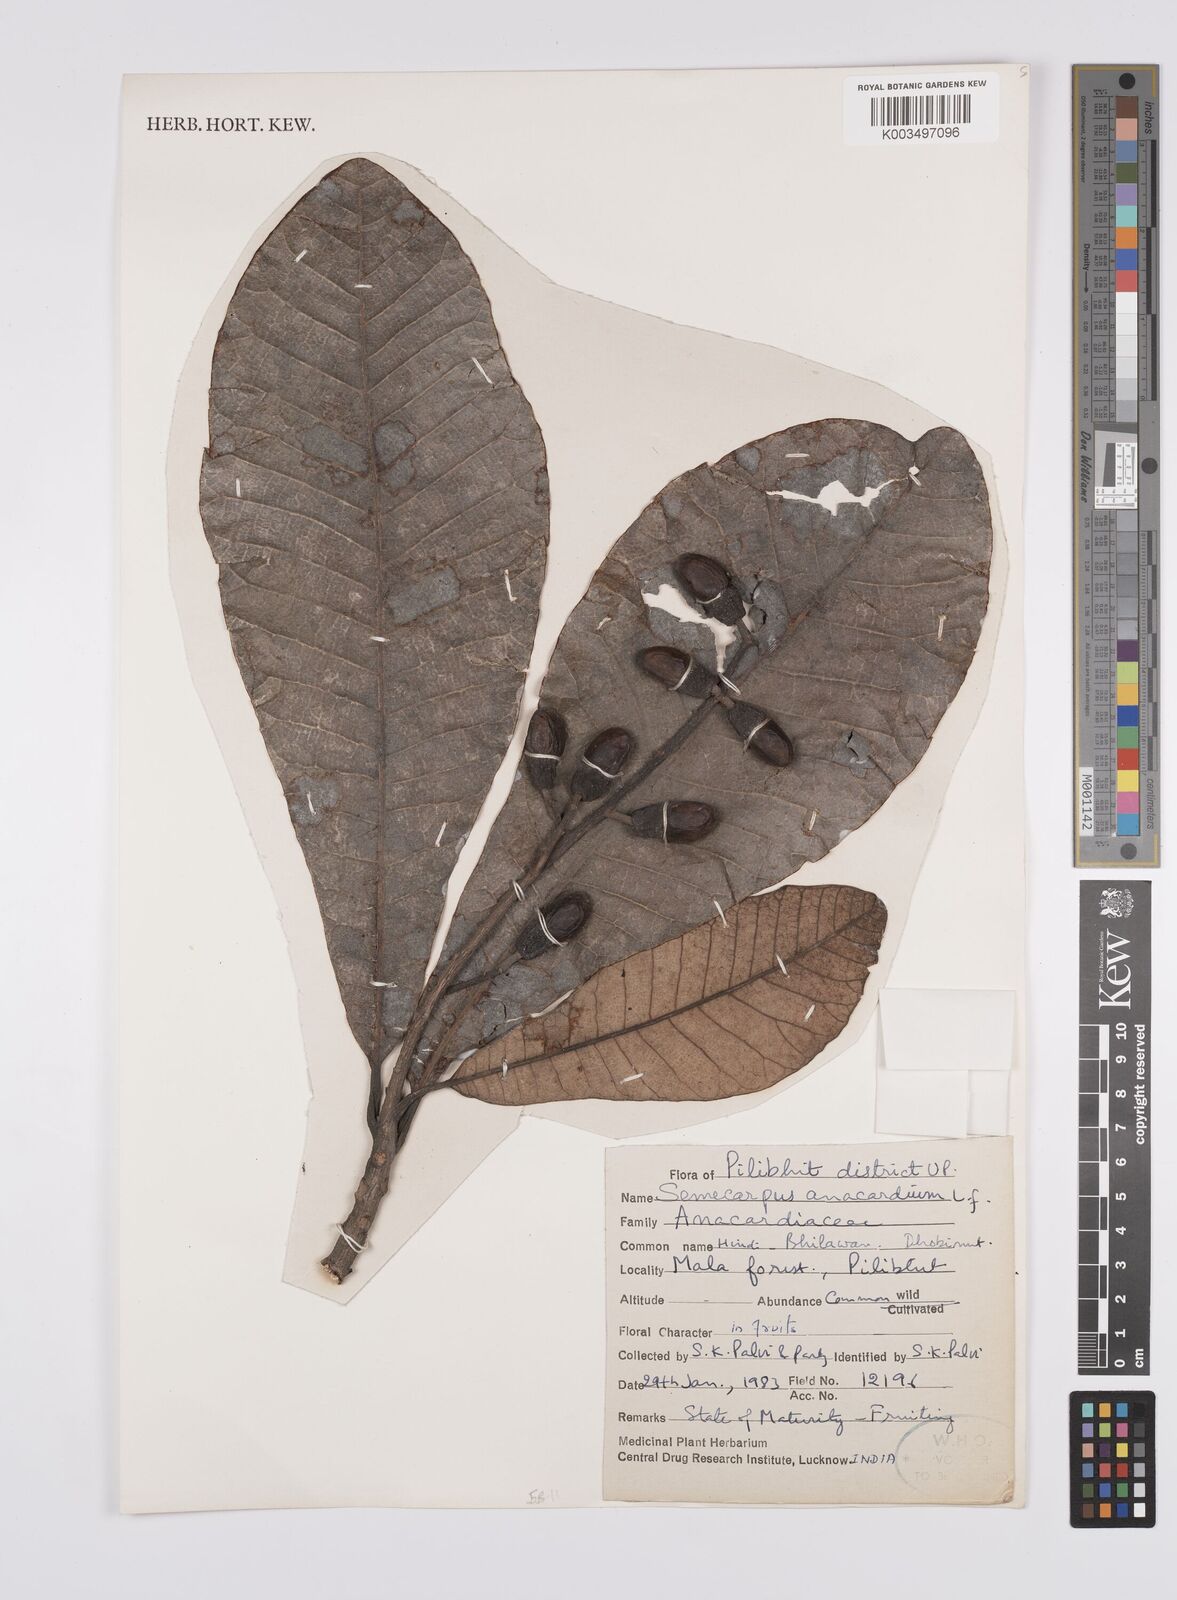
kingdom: Plantae
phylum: Tracheophyta
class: Magnoliopsida
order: Sapindales
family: Anacardiaceae
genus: Semecarpus
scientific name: Semecarpus anacardium
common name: Marking nut-tree
